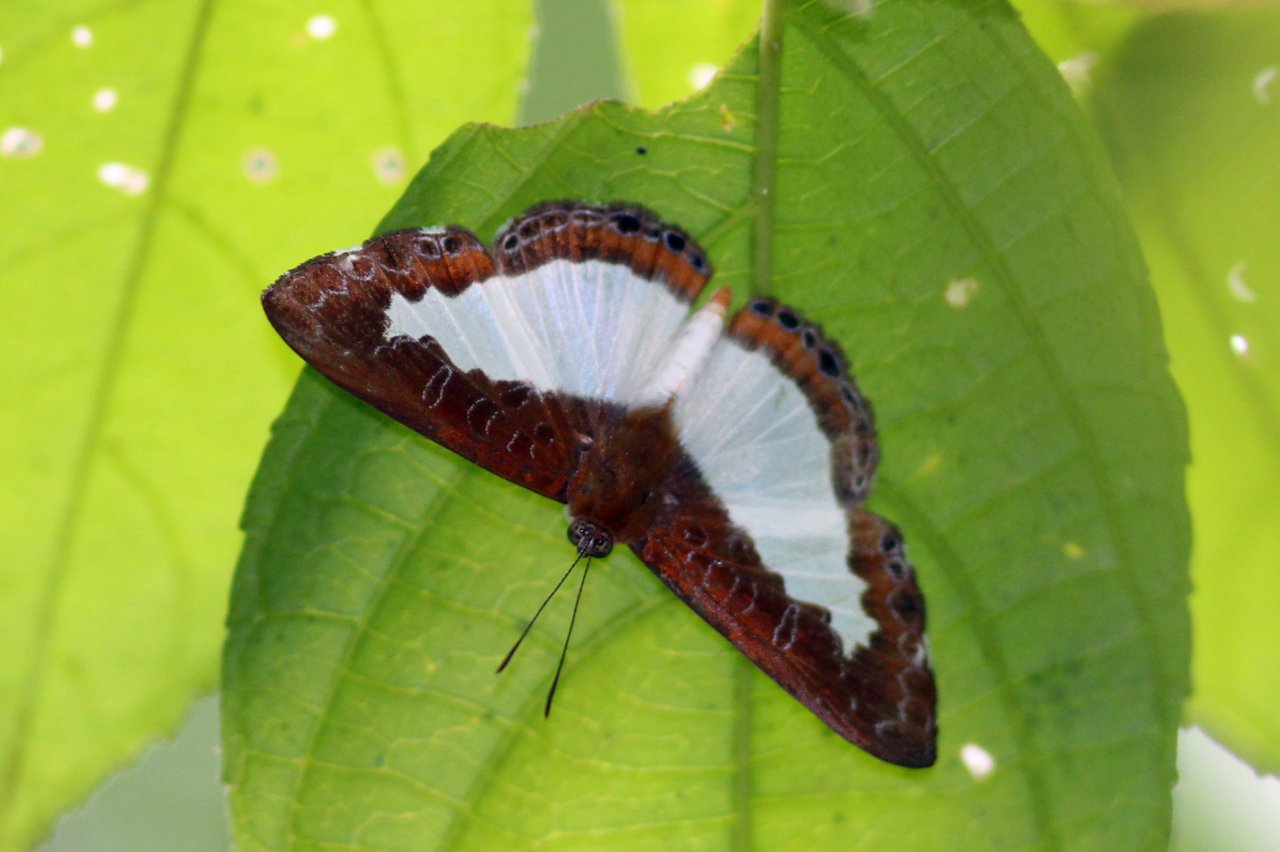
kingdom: Animalia
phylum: Arthropoda
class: Insecta
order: Lepidoptera
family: Riodinidae
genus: Juditha
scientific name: Juditha caucana
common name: Molpe Metalmark
